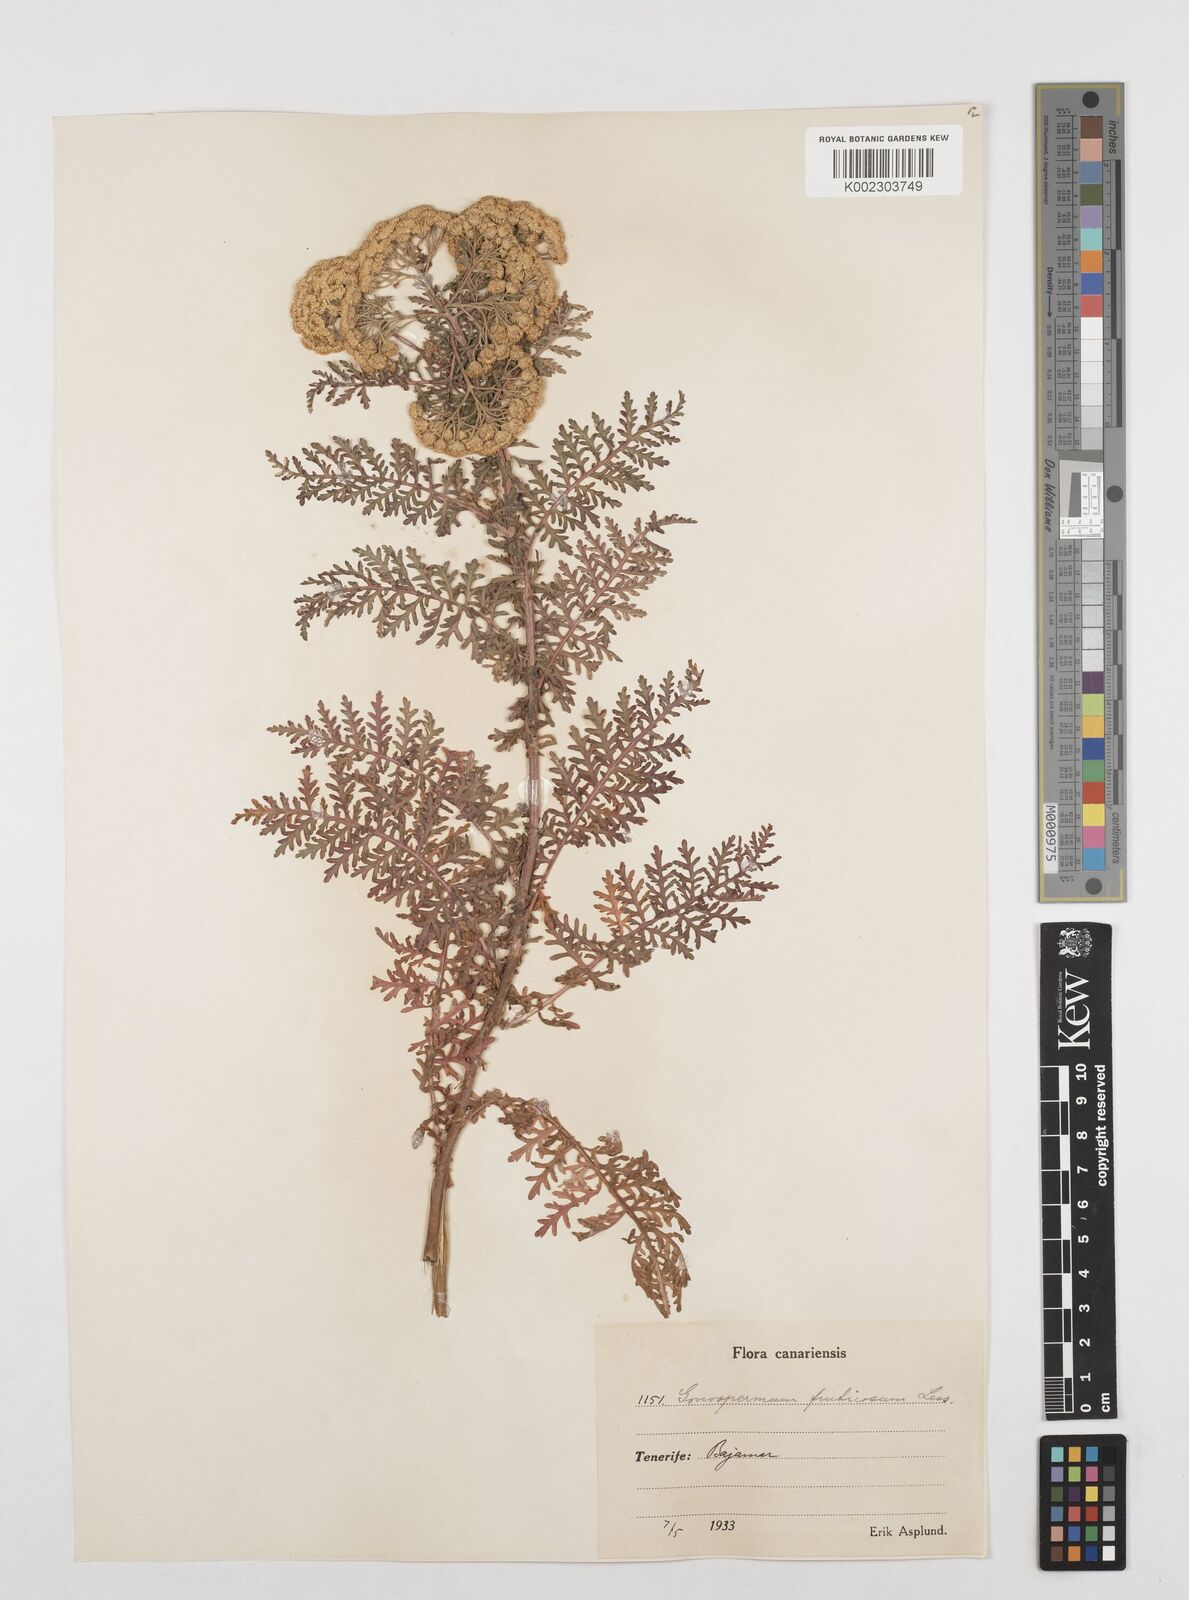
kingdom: Plantae
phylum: Tracheophyta
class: Magnoliopsida
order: Asterales
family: Asteraceae
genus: Gonospermum
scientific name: Gonospermum fruticosum
